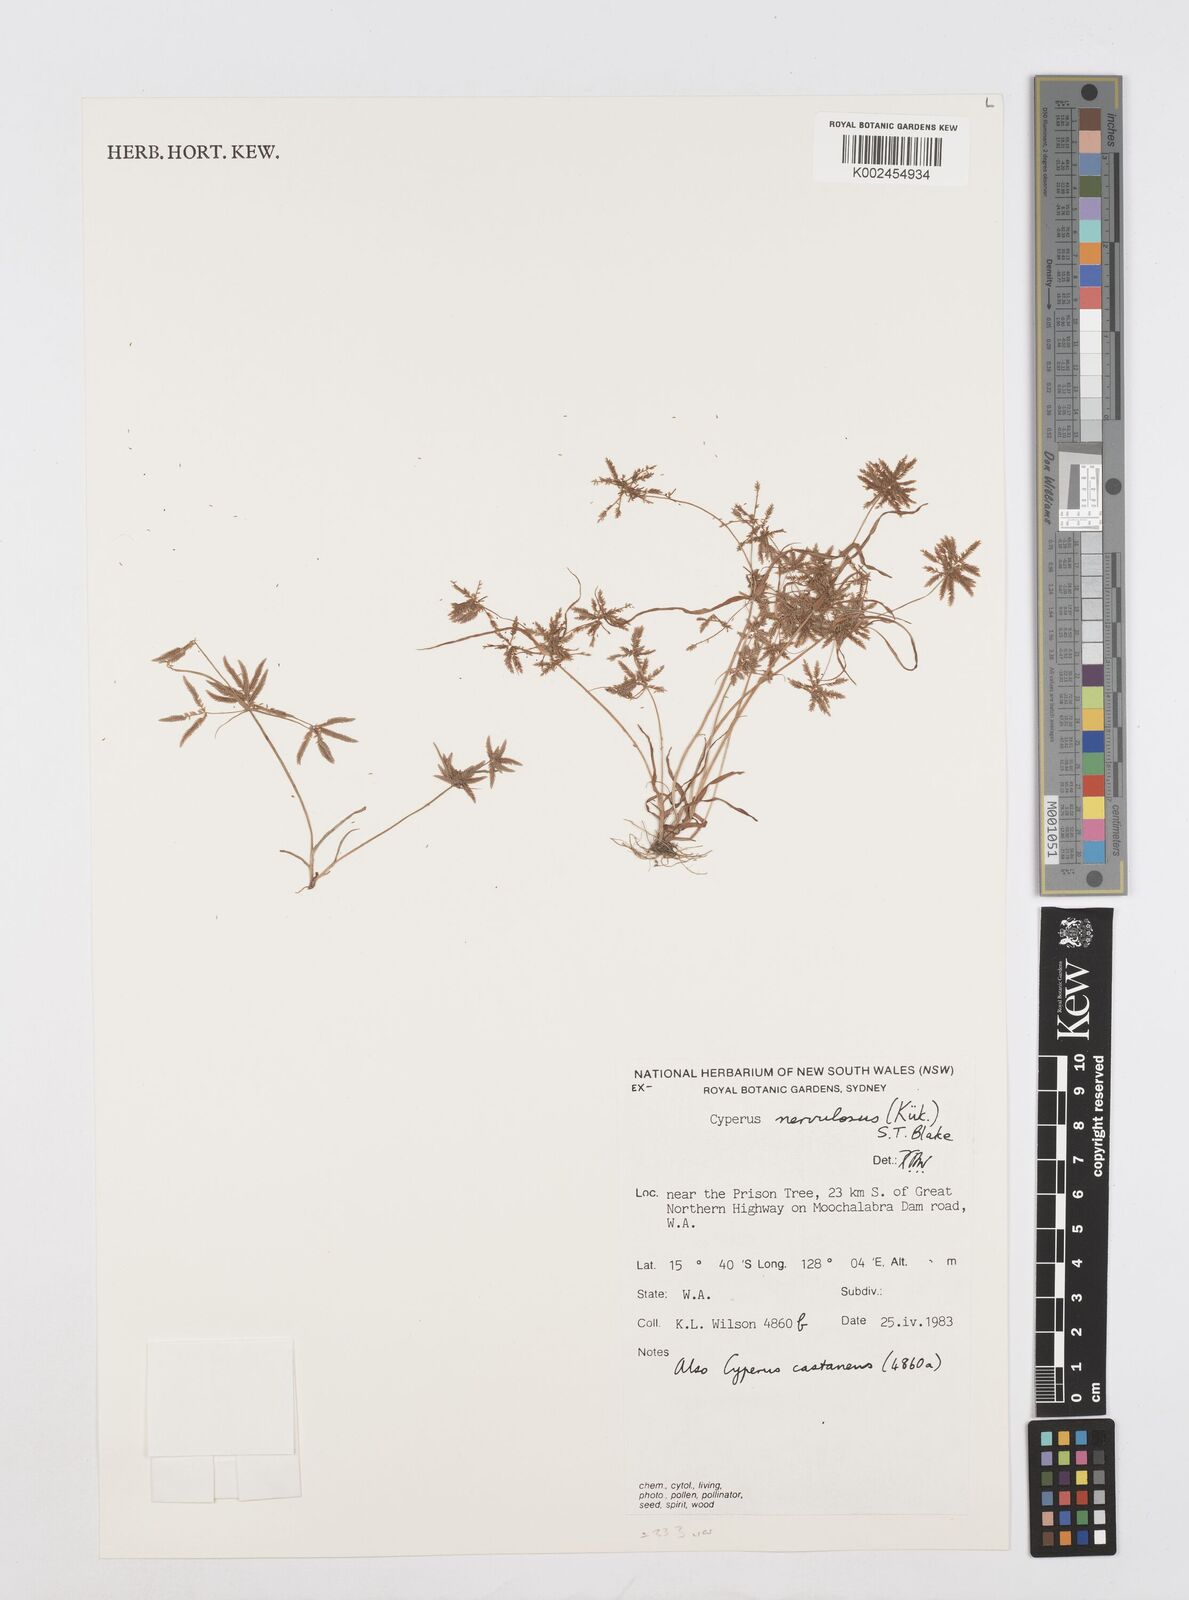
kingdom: Plantae
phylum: Tracheophyta
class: Liliopsida
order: Poales
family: Cyperaceae
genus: Cyperus
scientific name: Cyperus nervulosus
